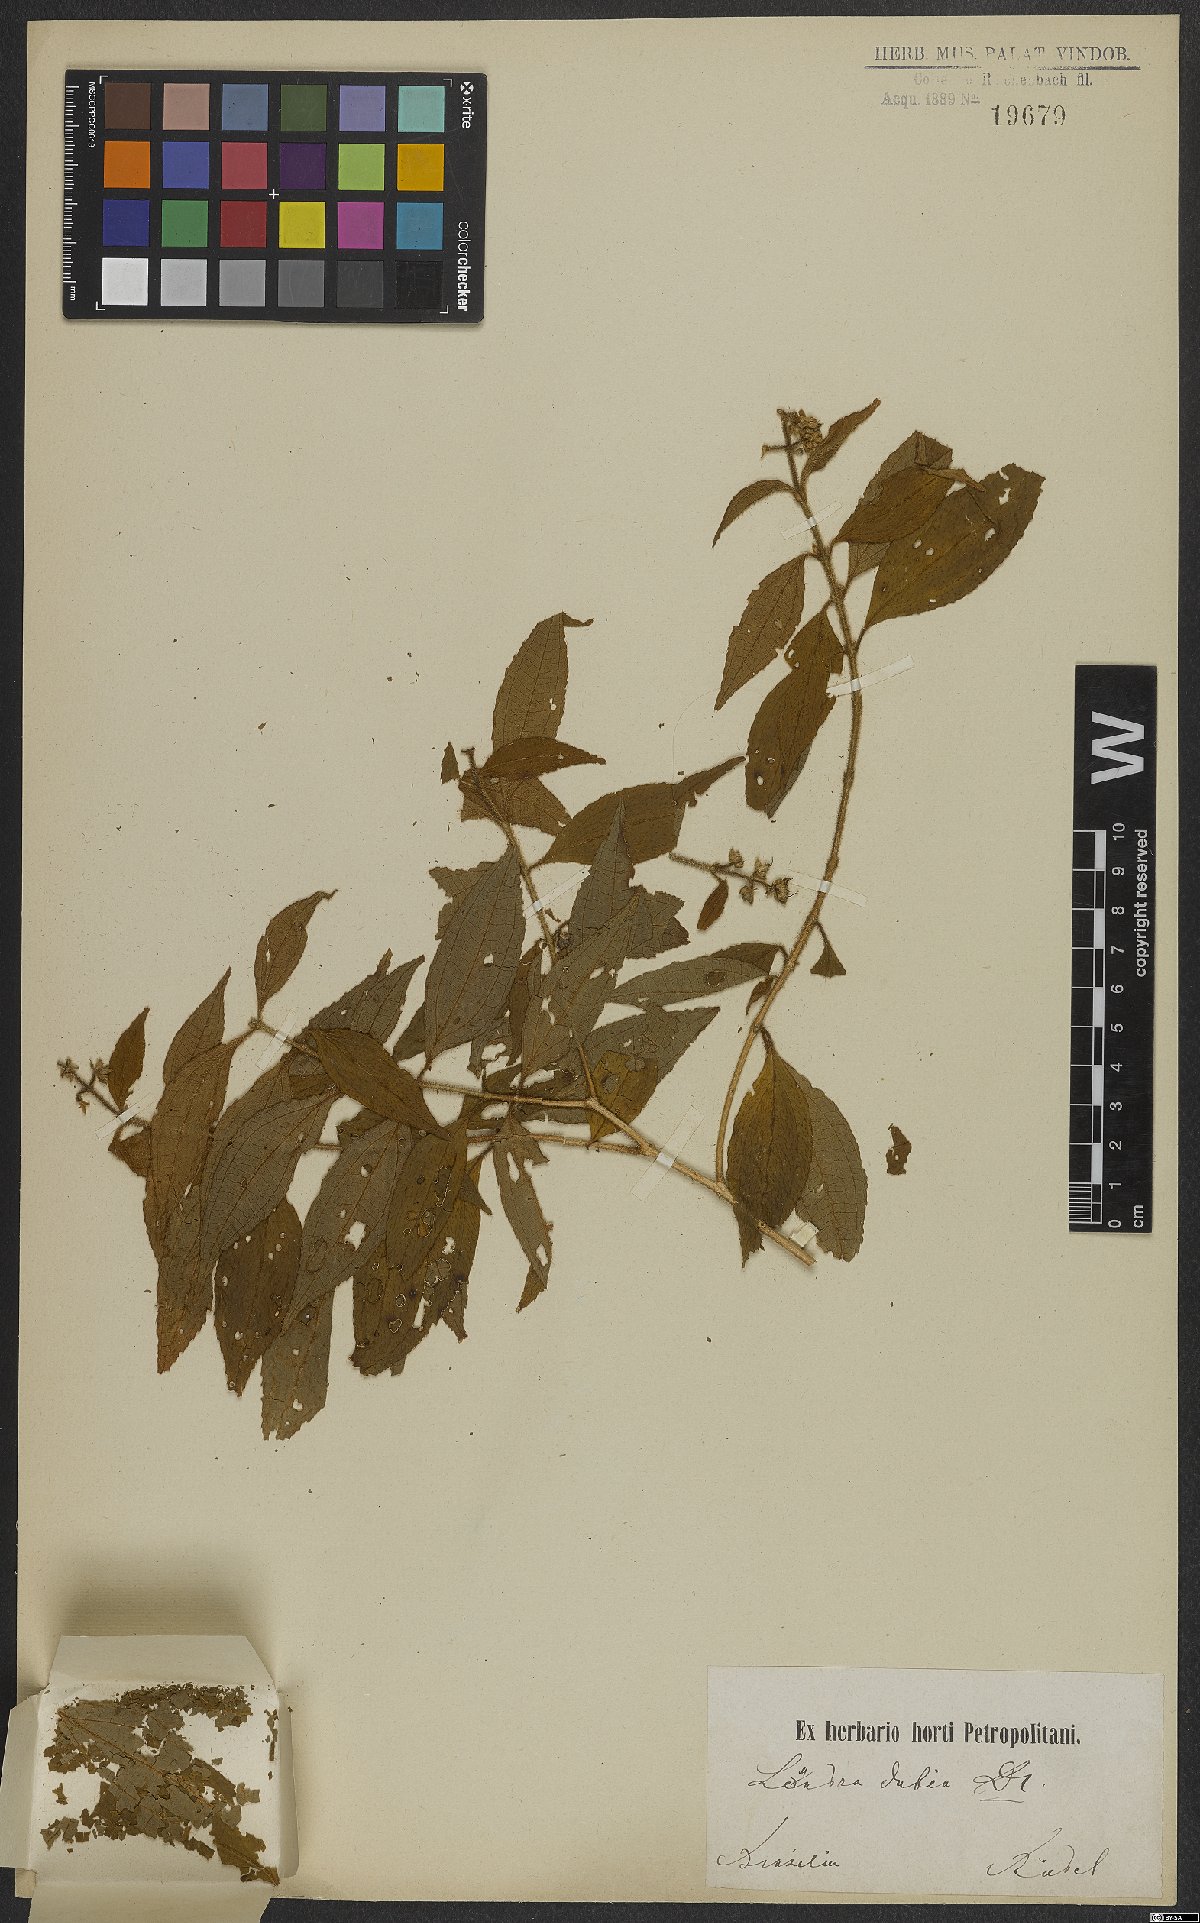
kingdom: Plantae
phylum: Tracheophyta
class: Magnoliopsida
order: Myrtales
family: Melastomataceae
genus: Miconia
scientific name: Miconia dubia
